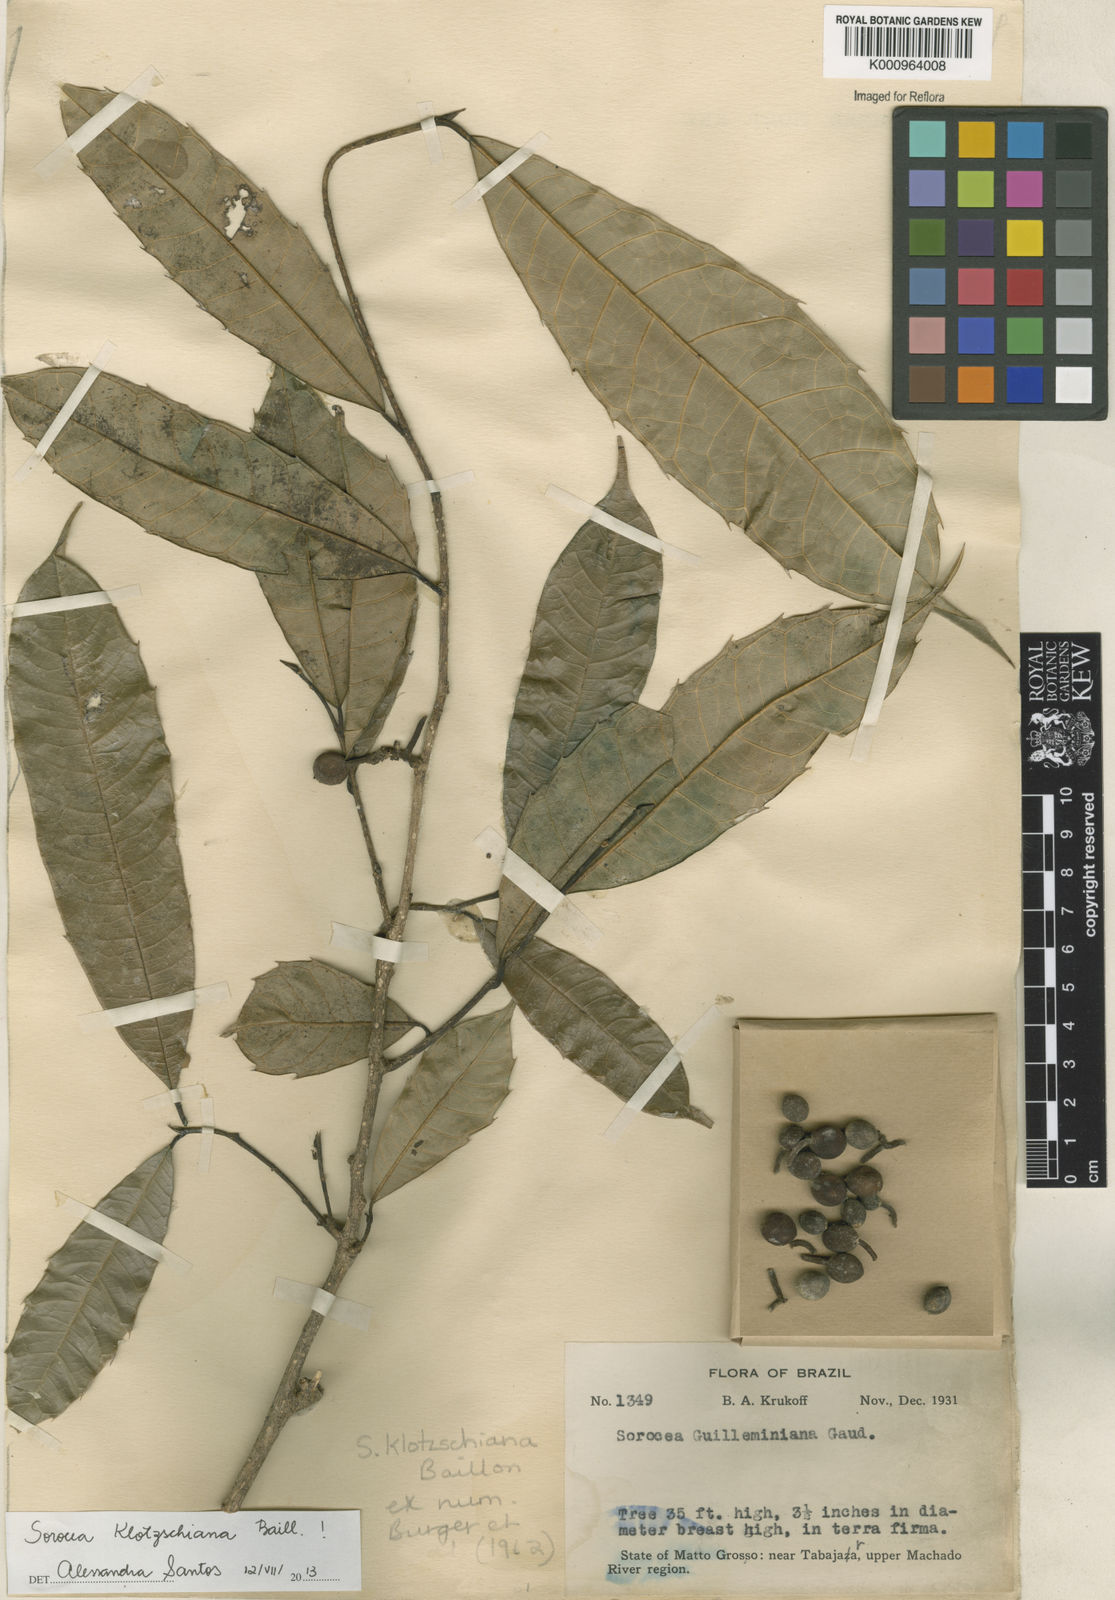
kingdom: Plantae
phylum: Tracheophyta
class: Magnoliopsida
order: Rosales
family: Moraceae
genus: Sorocea
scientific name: Sorocea guilleminiana
